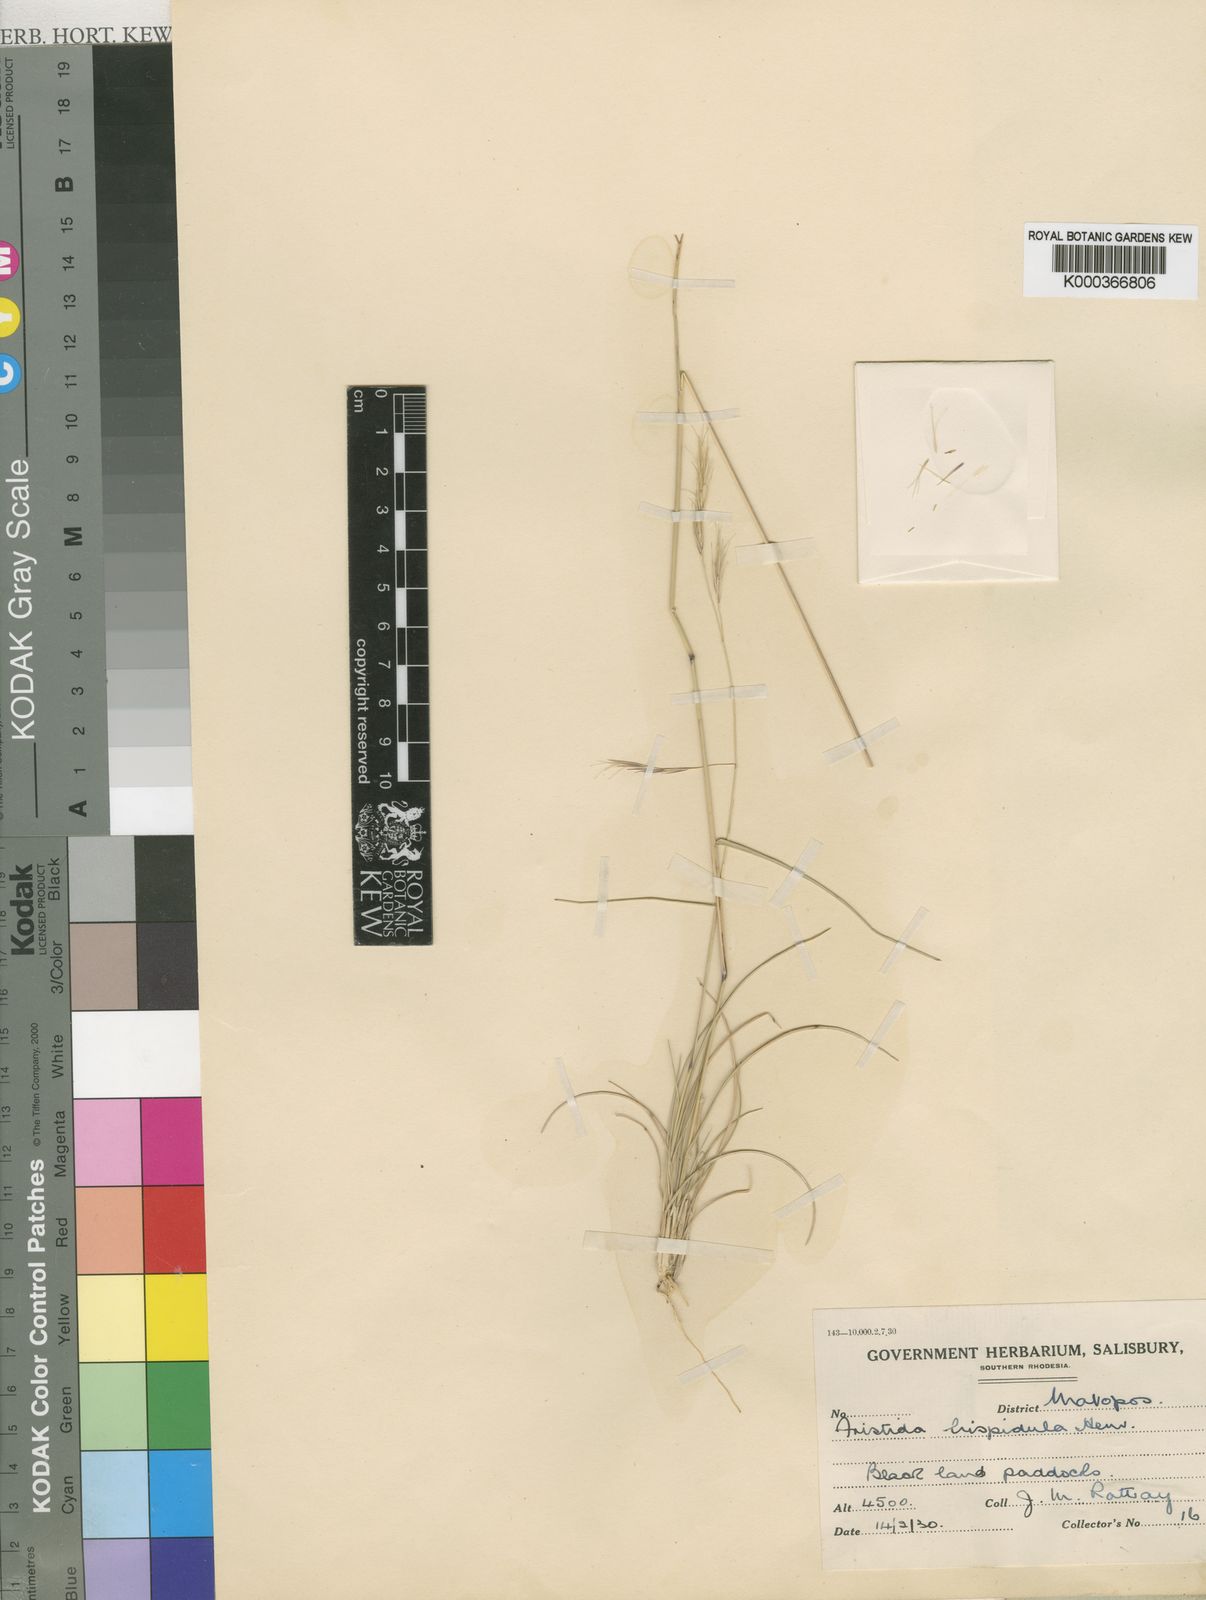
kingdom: Plantae
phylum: Tracheophyta
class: Liliopsida
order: Poales
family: Poaceae
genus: Aristida
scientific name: Aristida hispidula
